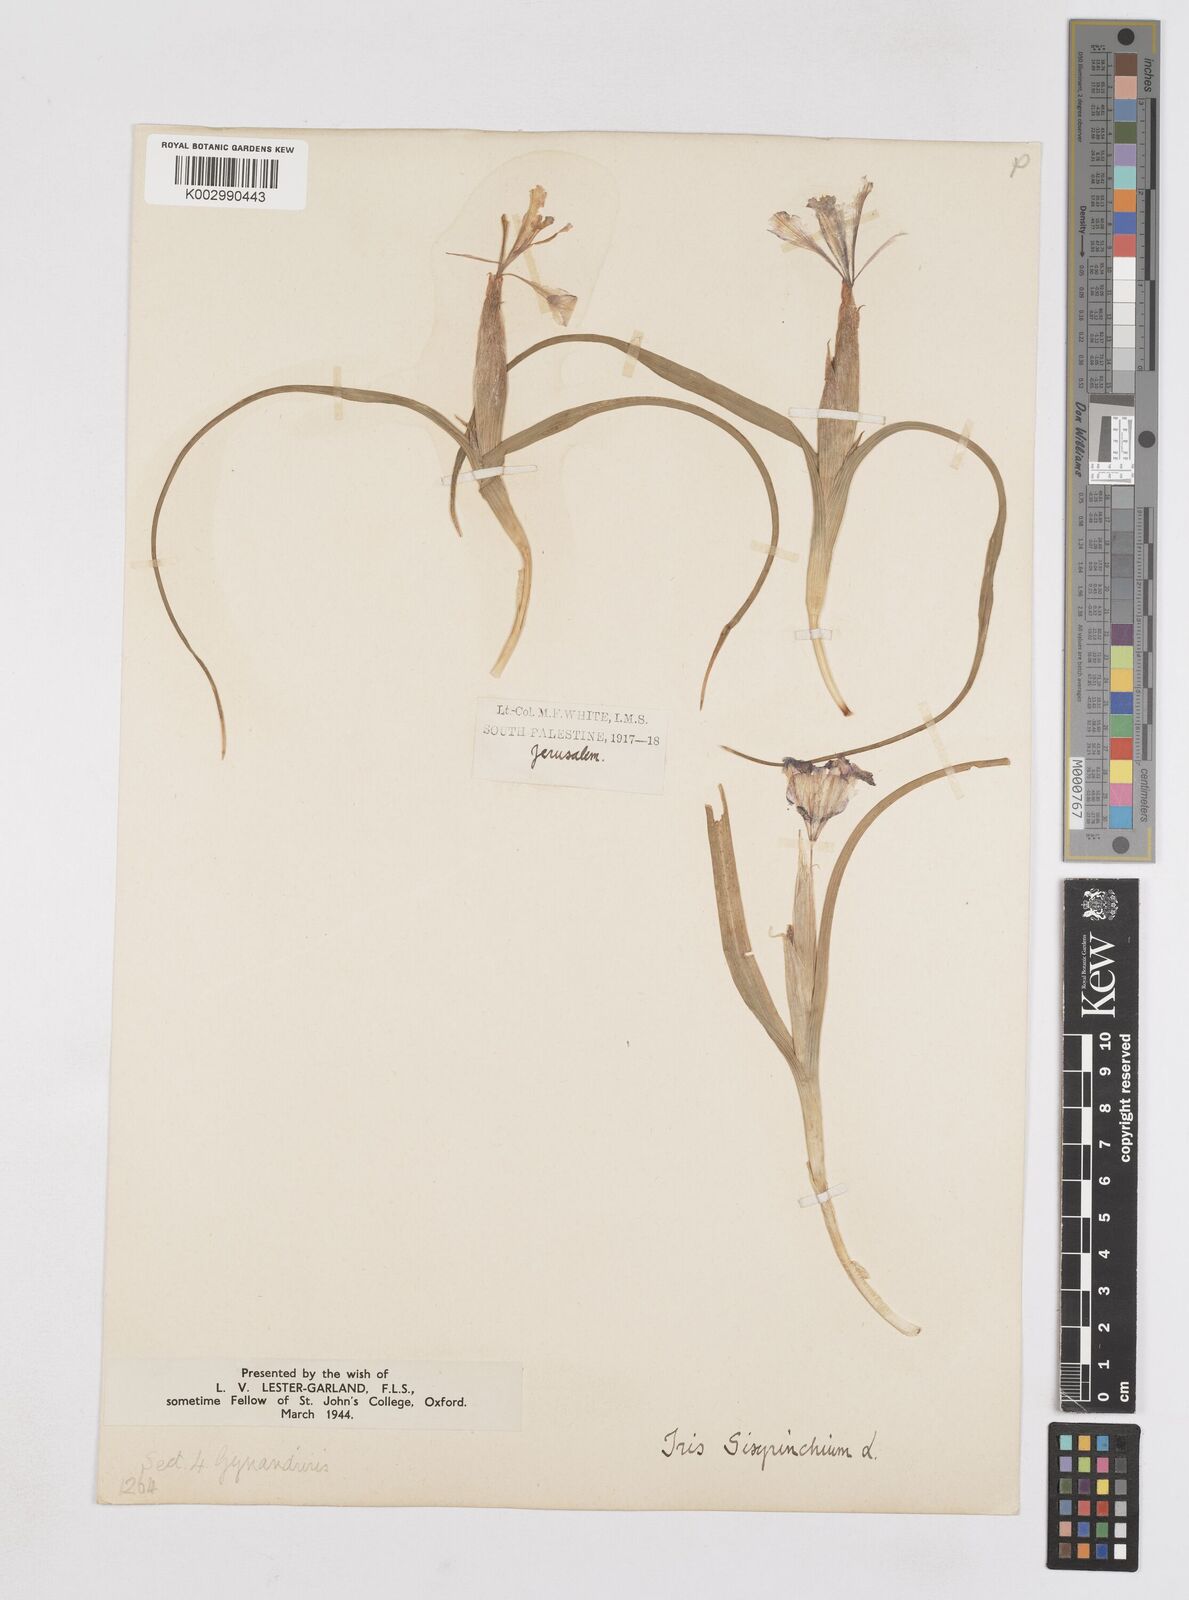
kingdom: Plantae
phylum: Tracheophyta
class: Liliopsida
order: Asparagales
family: Iridaceae
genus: Moraea
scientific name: Moraea sisyrinchium
